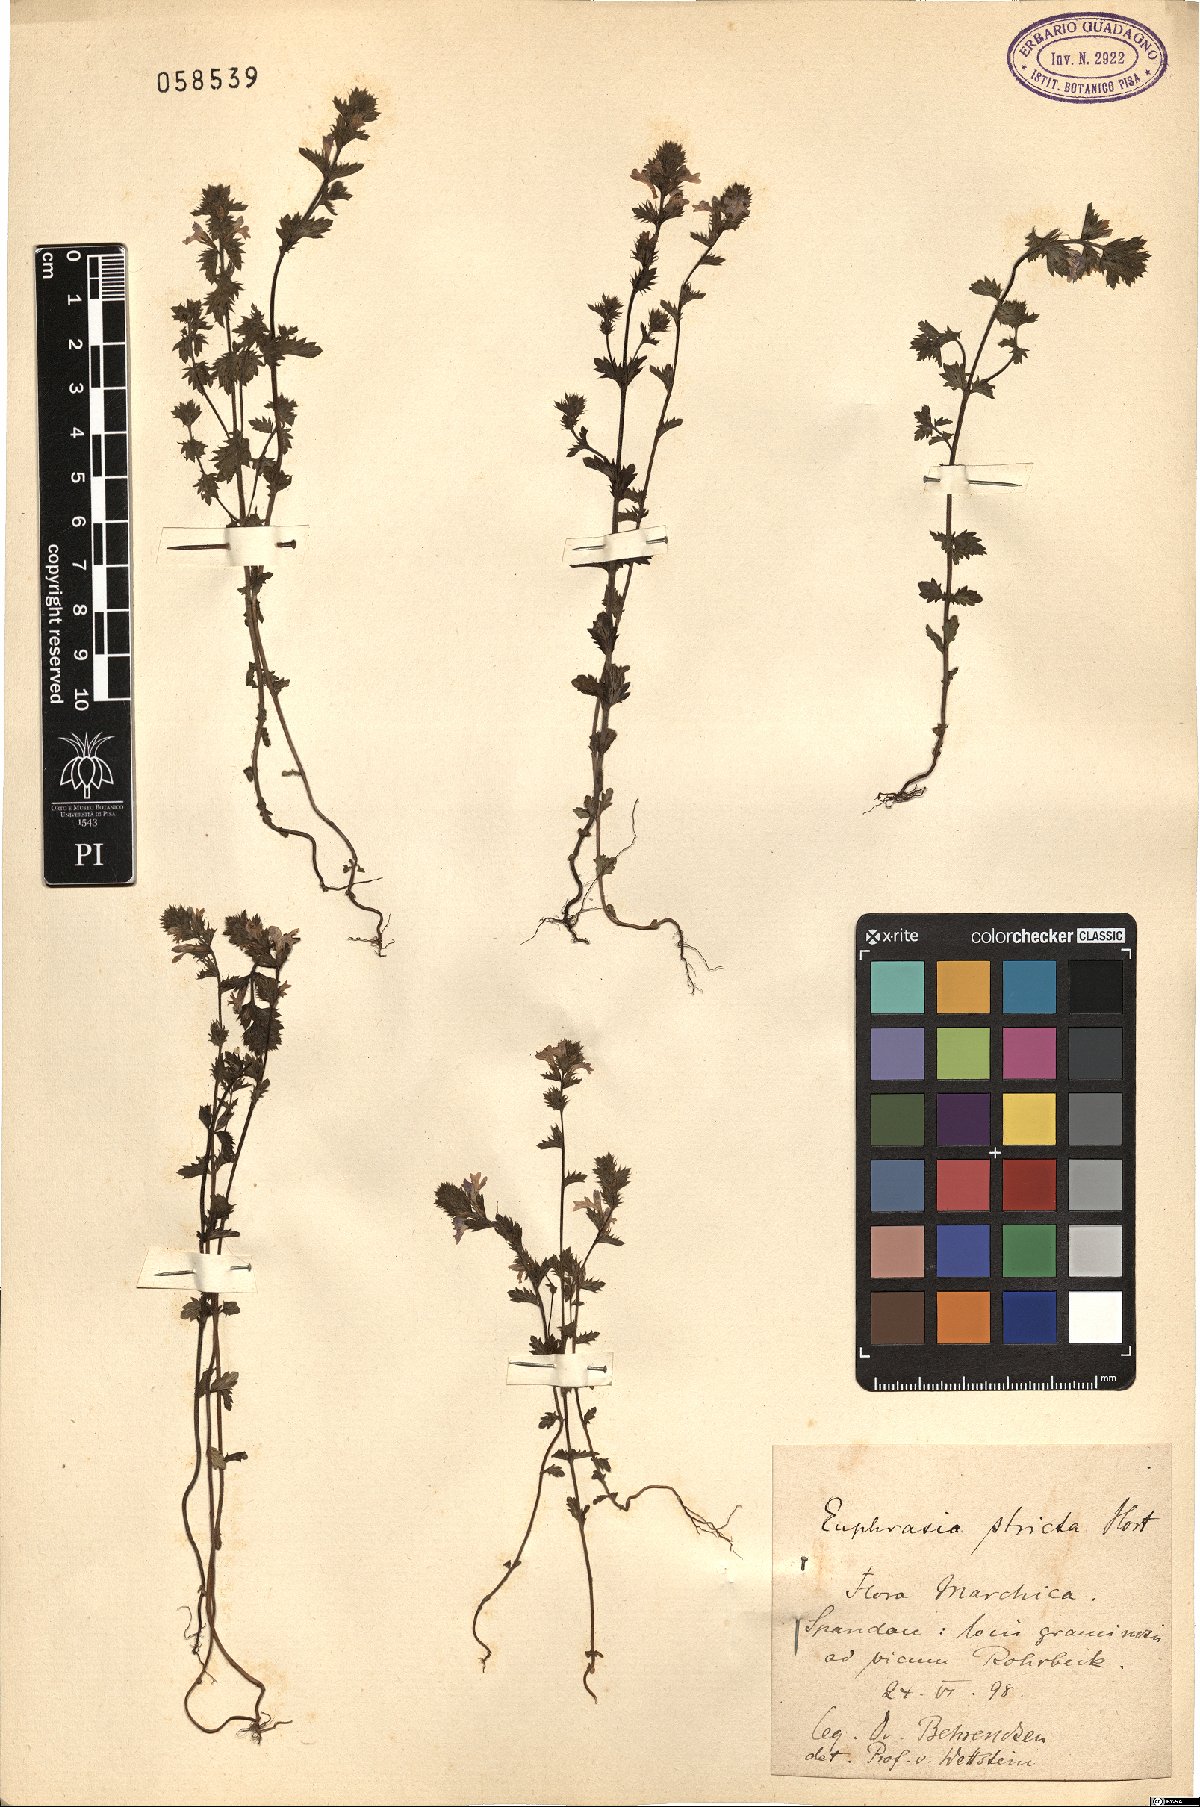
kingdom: Plantae
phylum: Tracheophyta
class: Magnoliopsida
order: Lamiales
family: Orobanchaceae
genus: Euphrasia
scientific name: Euphrasia stricta
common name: Drug eyebright
